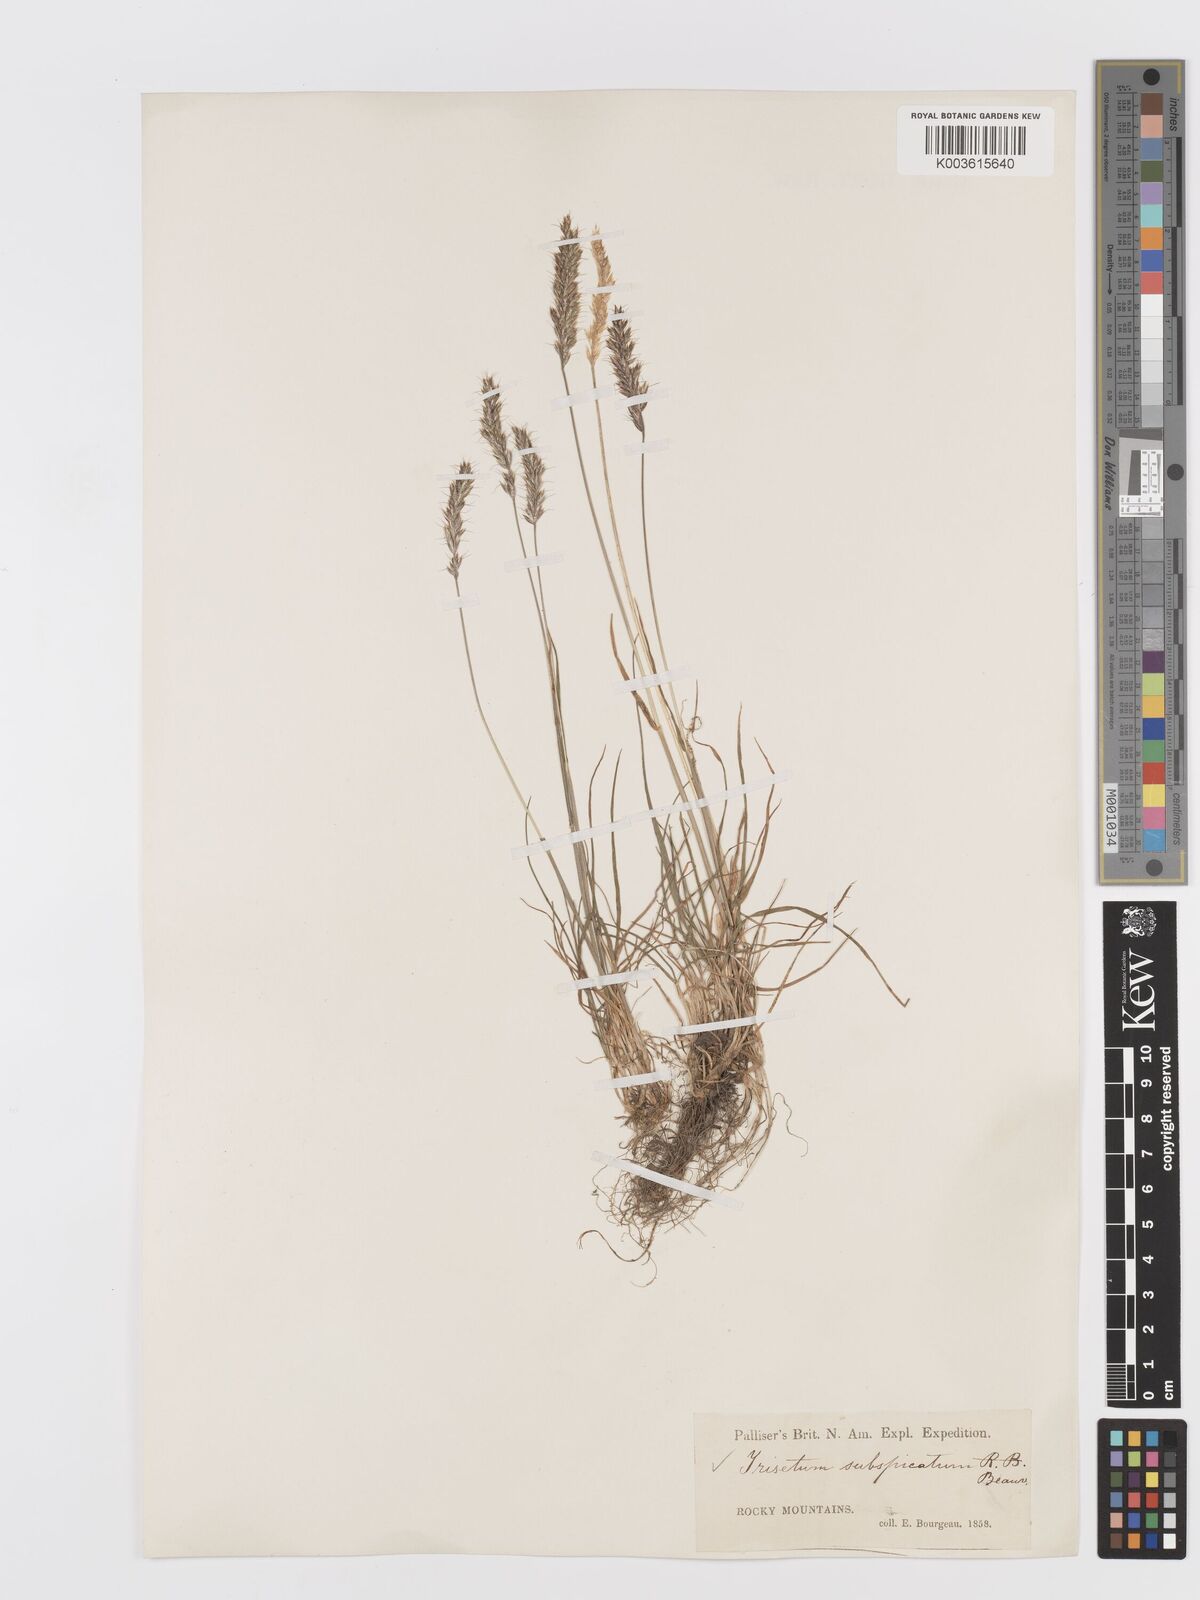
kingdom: Plantae
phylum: Tracheophyta
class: Liliopsida
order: Poales
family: Poaceae
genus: Koeleria
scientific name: Koeleria spicata
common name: Mountain trisetum
